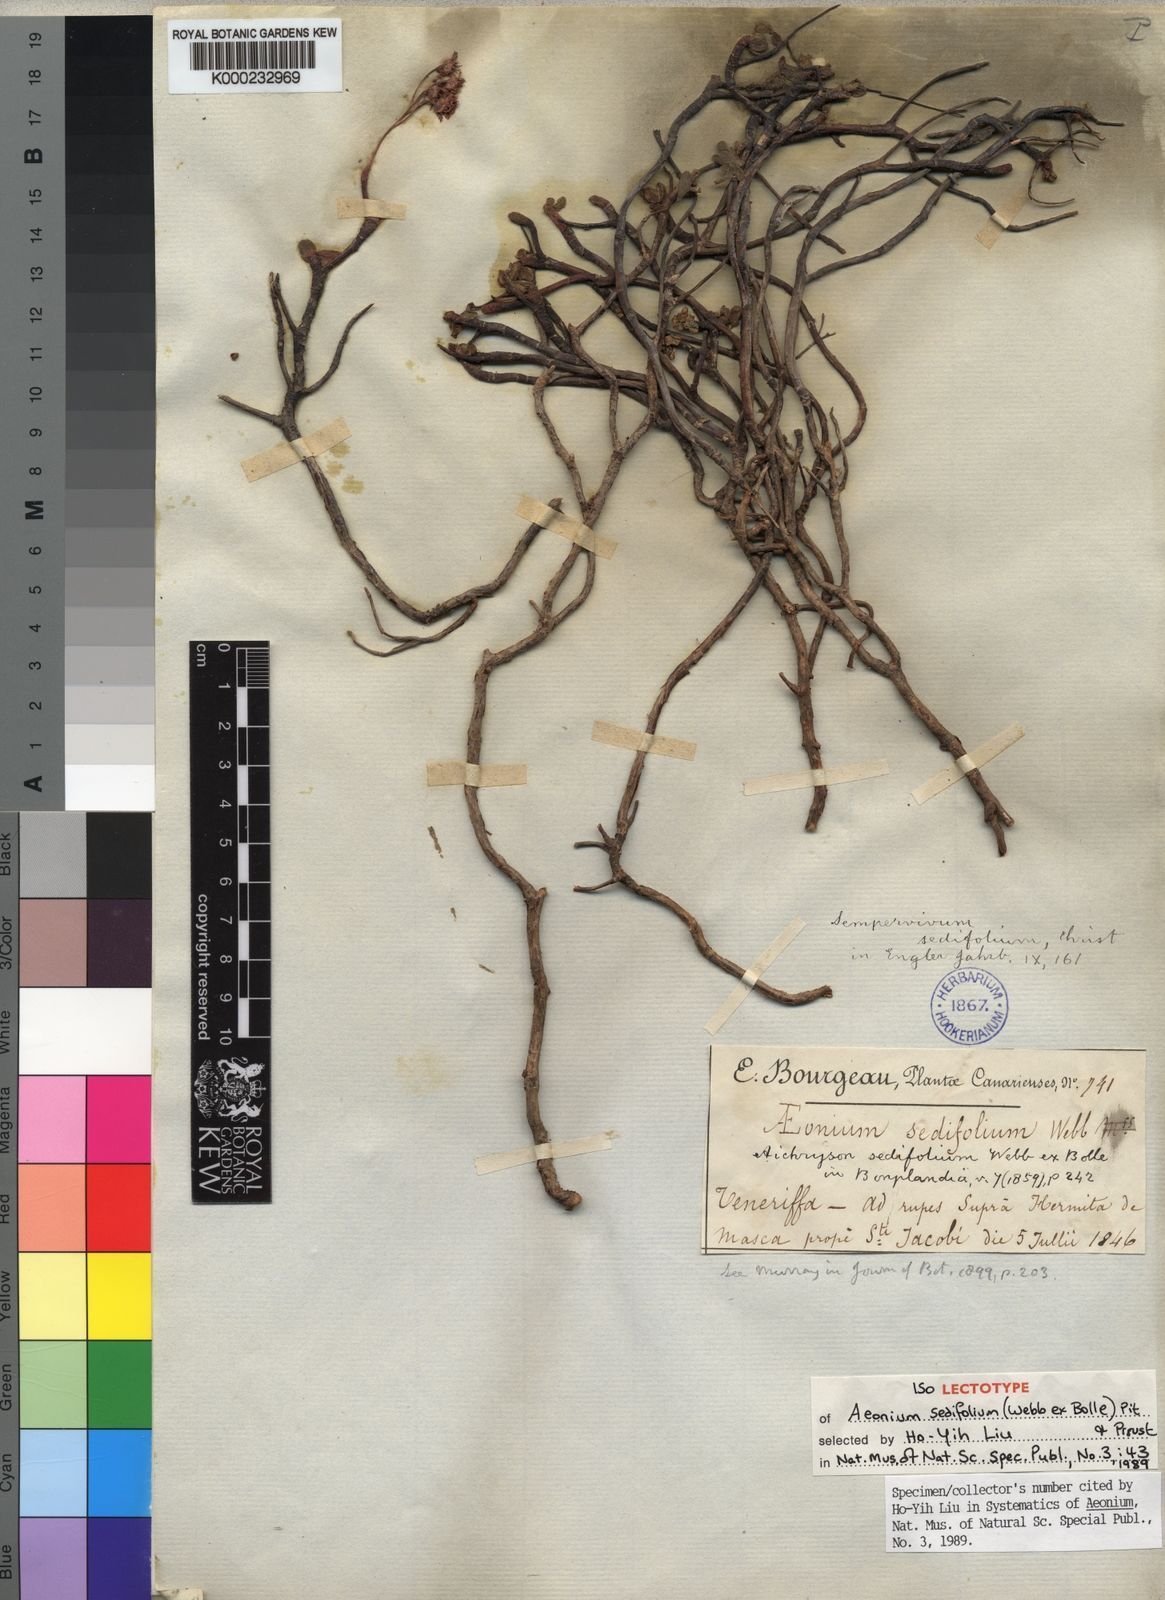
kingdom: Plantae
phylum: Tracheophyta
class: Magnoliopsida
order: Saxifragales
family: Crassulaceae
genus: Aeonium
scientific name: Aeonium sedifolium
